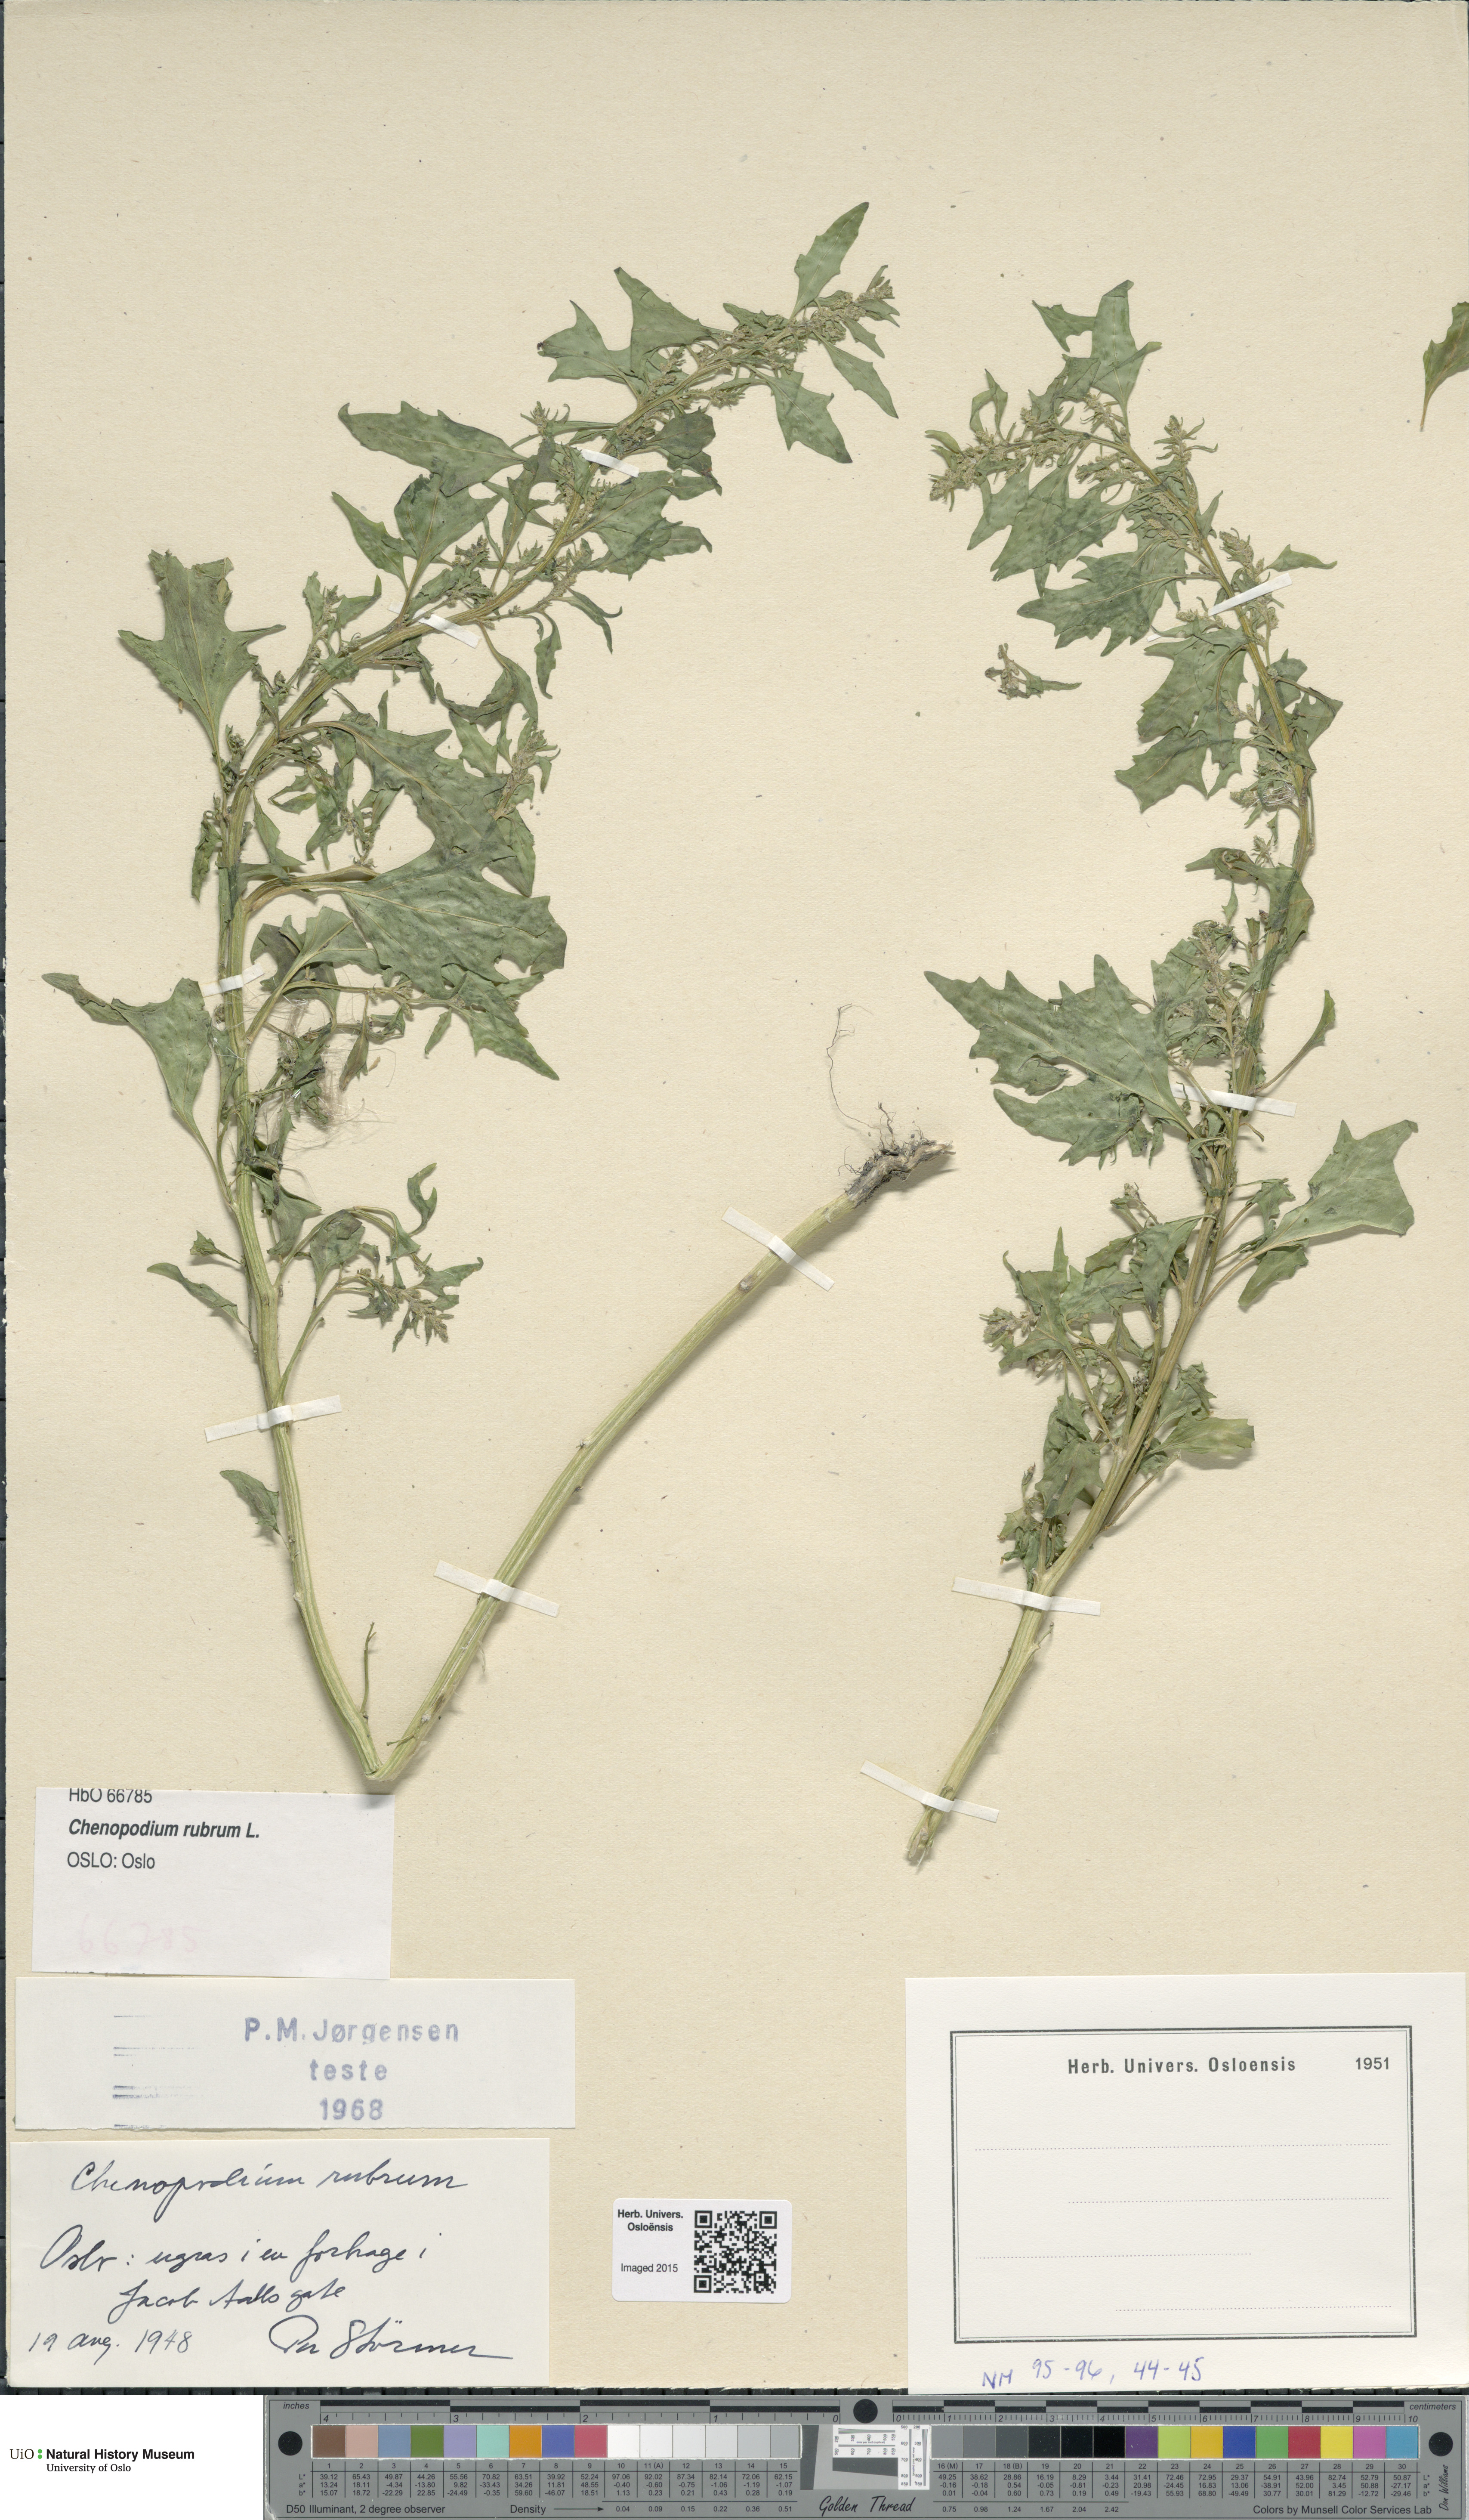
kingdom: Plantae
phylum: Tracheophyta
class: Magnoliopsida
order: Caryophyllales
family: Amaranthaceae
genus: Oxybasis
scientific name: Oxybasis rubra
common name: Red goosefoot
